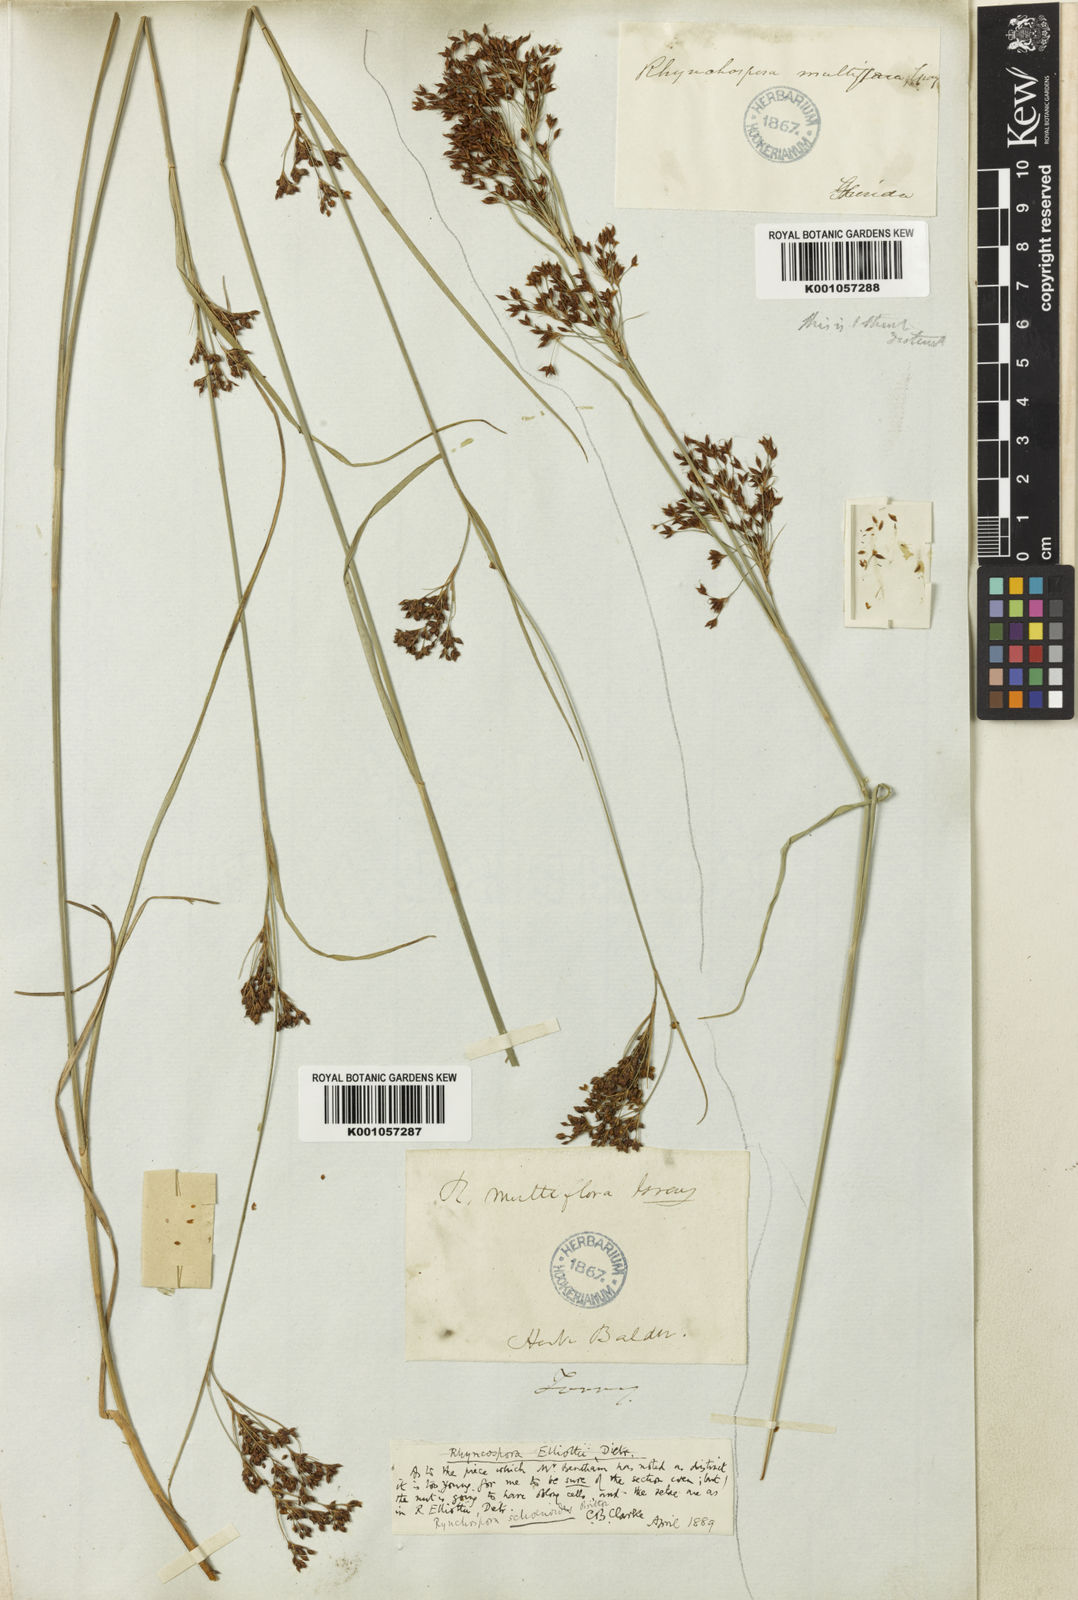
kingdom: Plantae
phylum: Tracheophyta
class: Liliopsida
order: Poales
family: Cyperaceae
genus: Rhynchospora
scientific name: Rhynchospora holoschoenoides
